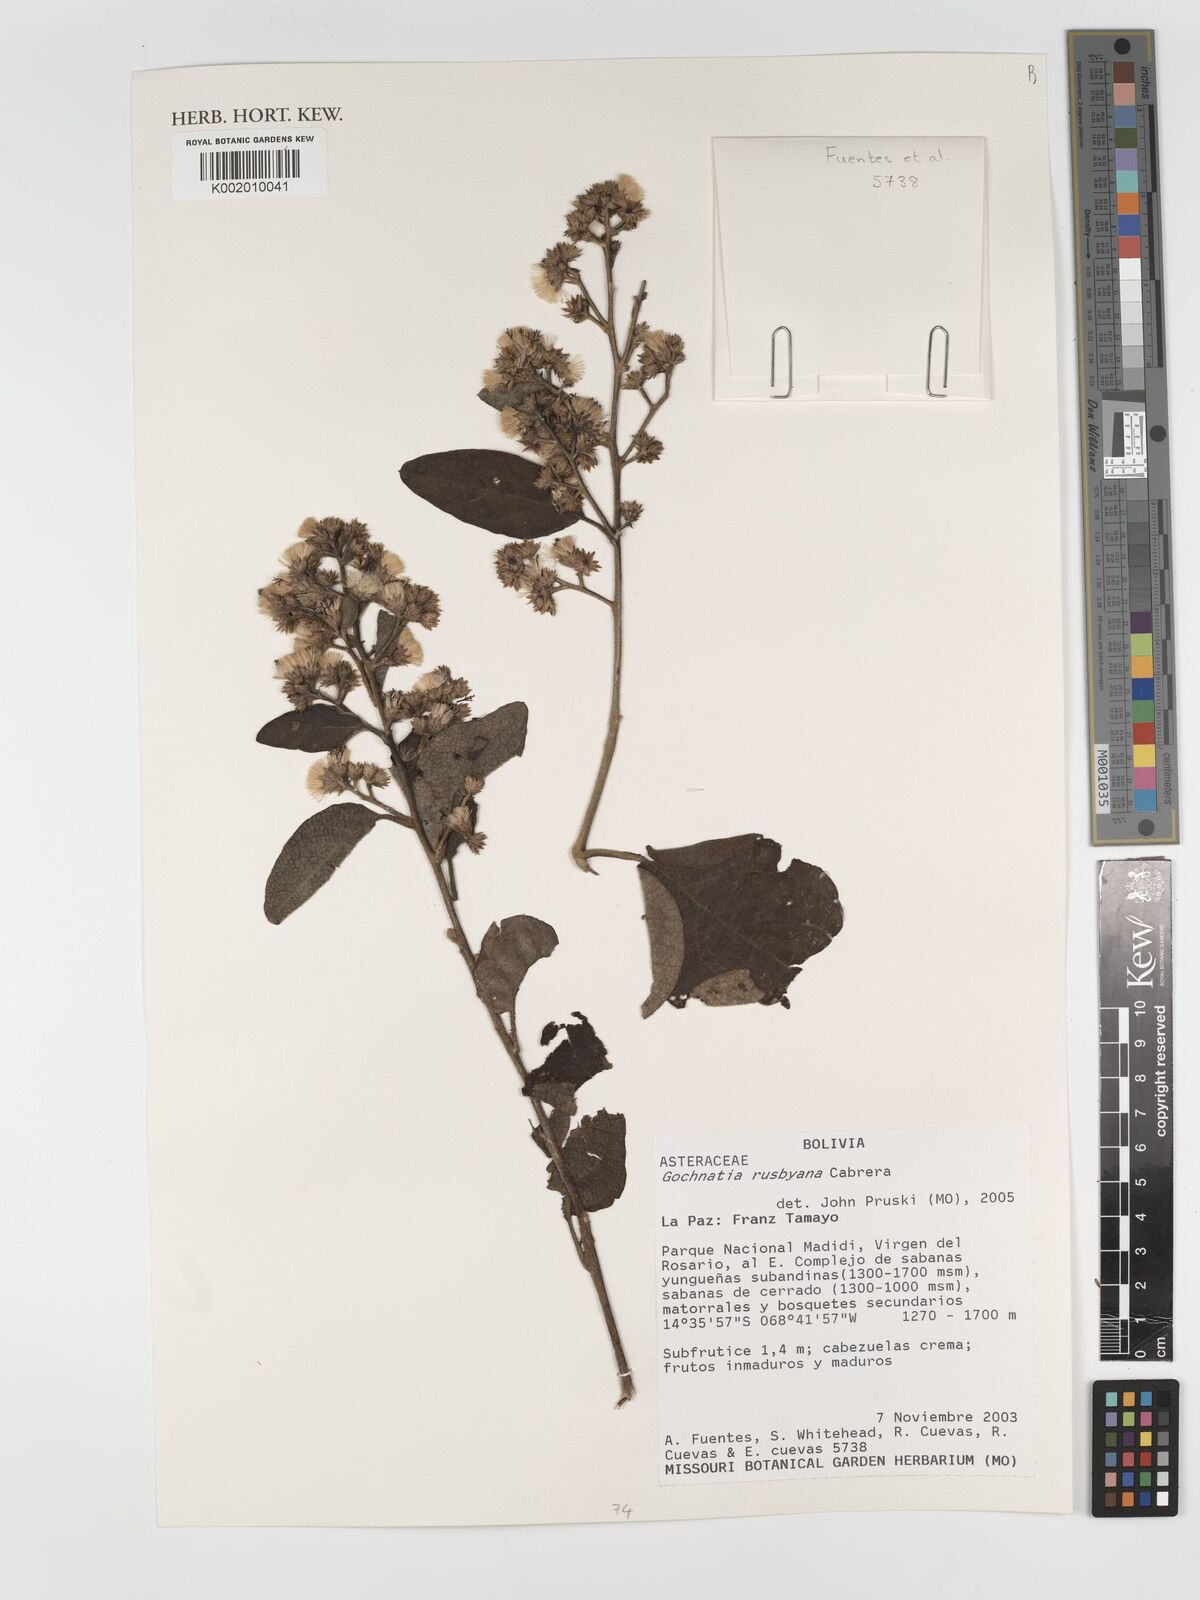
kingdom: Plantae
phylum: Tracheophyta
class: Magnoliopsida
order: Asterales
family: Asteraceae
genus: Moquiniastrum
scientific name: Moquiniastrum bolivianum
